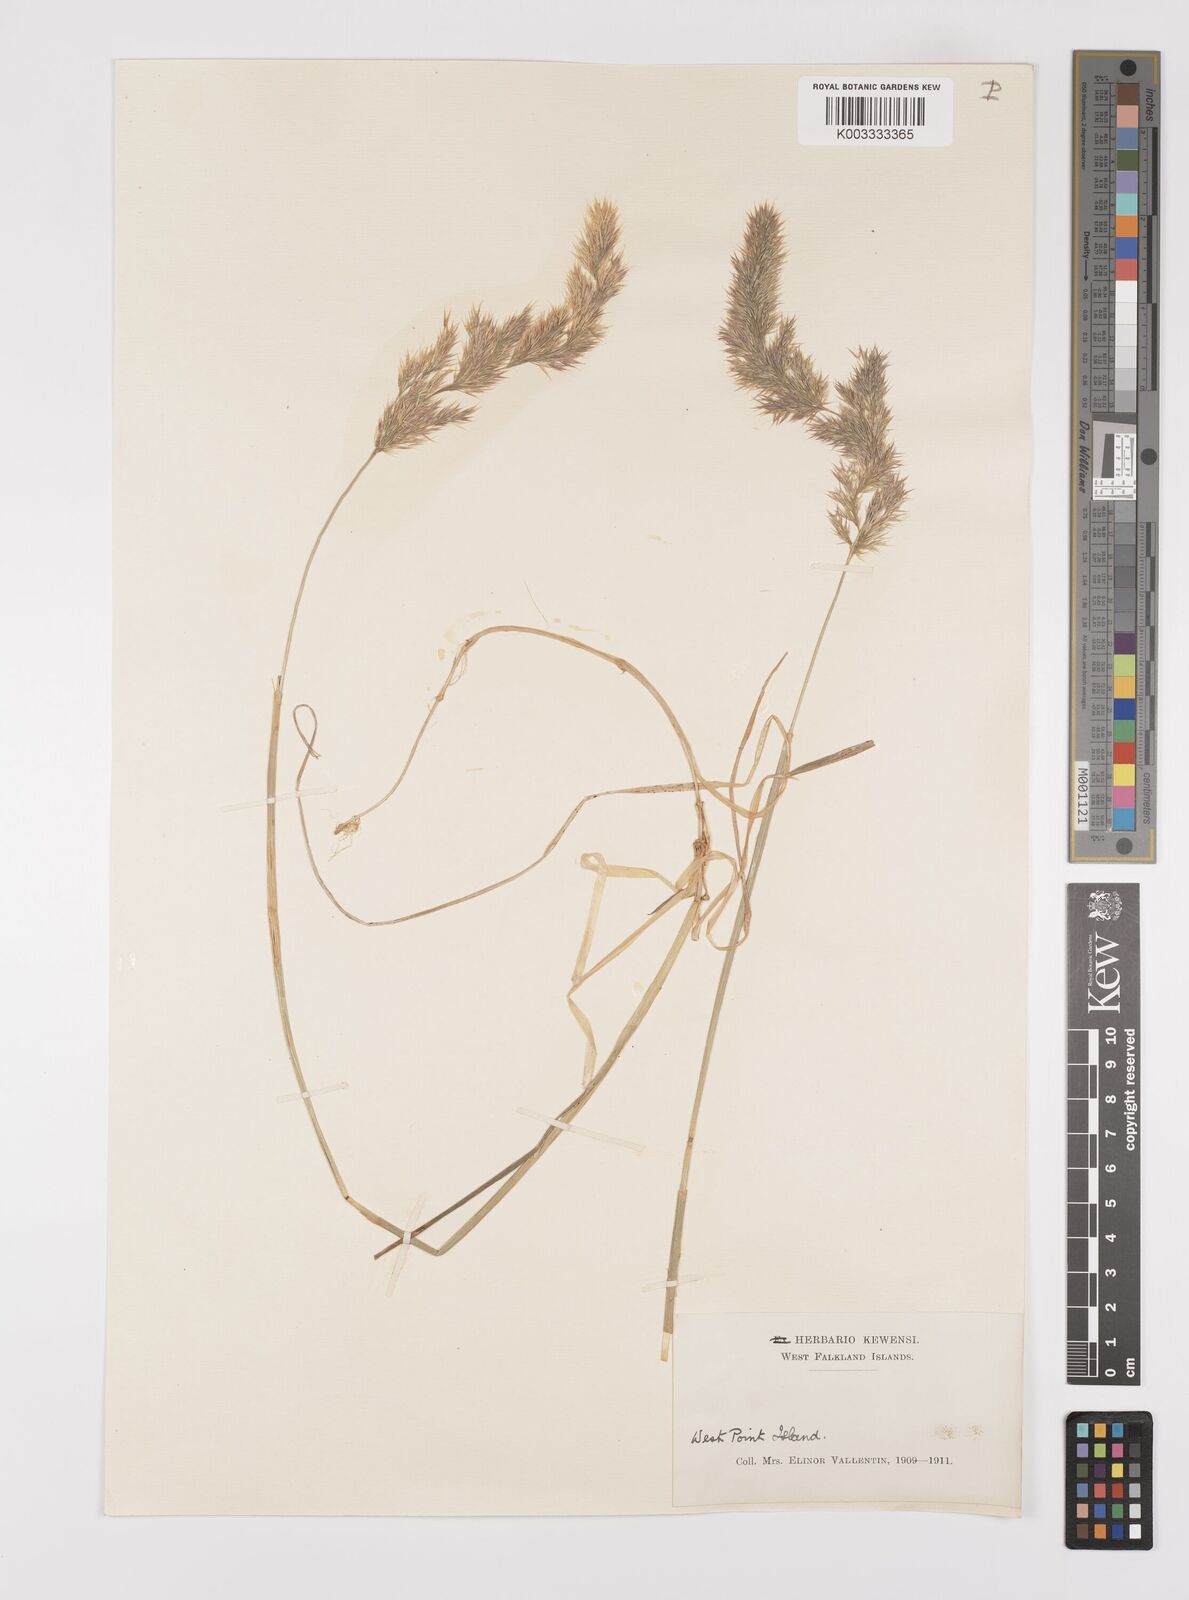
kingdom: Plantae
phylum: Tracheophyta
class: Liliopsida
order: Poales
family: Poaceae
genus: Polypogon
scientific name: Polypogon magellanicus
